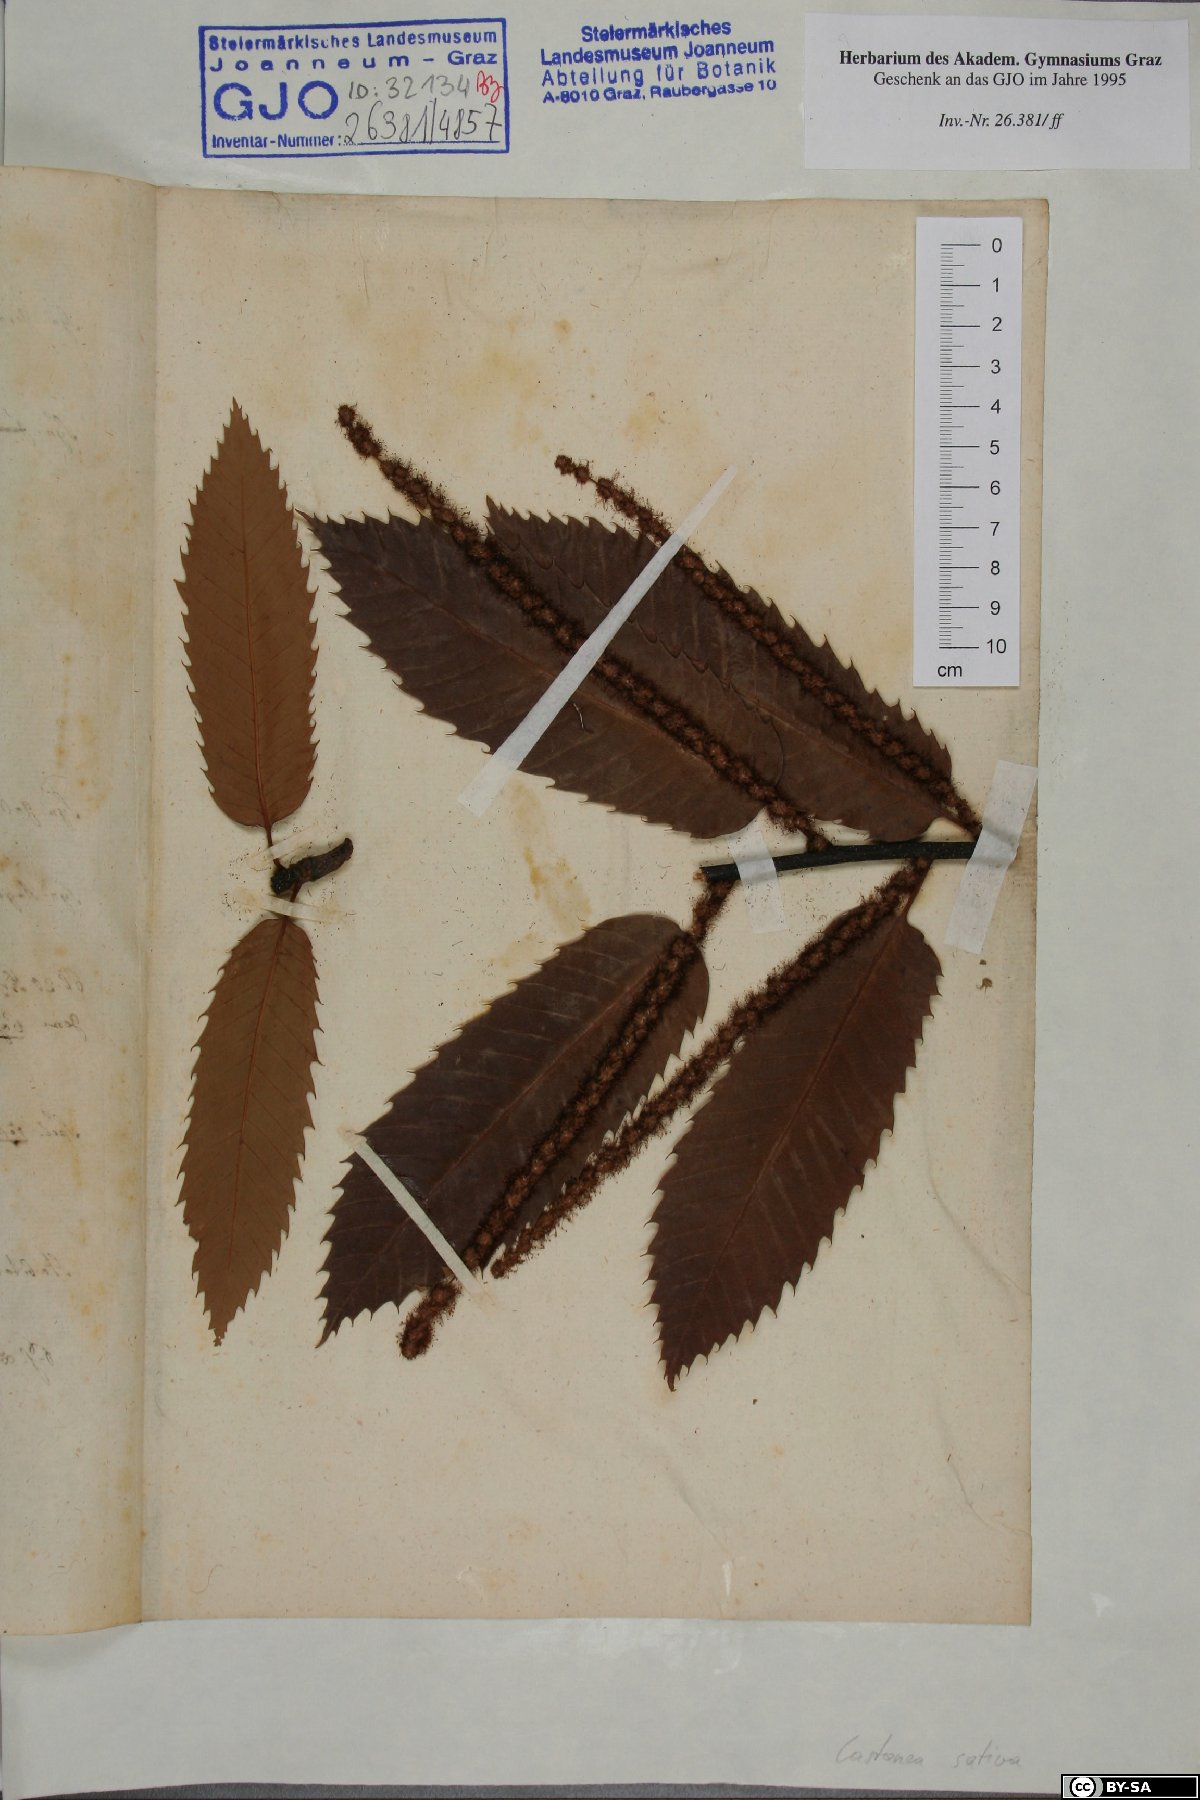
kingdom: Plantae
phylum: Tracheophyta
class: Magnoliopsida
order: Fagales
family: Fagaceae
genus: Castanea
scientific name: Castanea sativa
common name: Sweet chestnut
